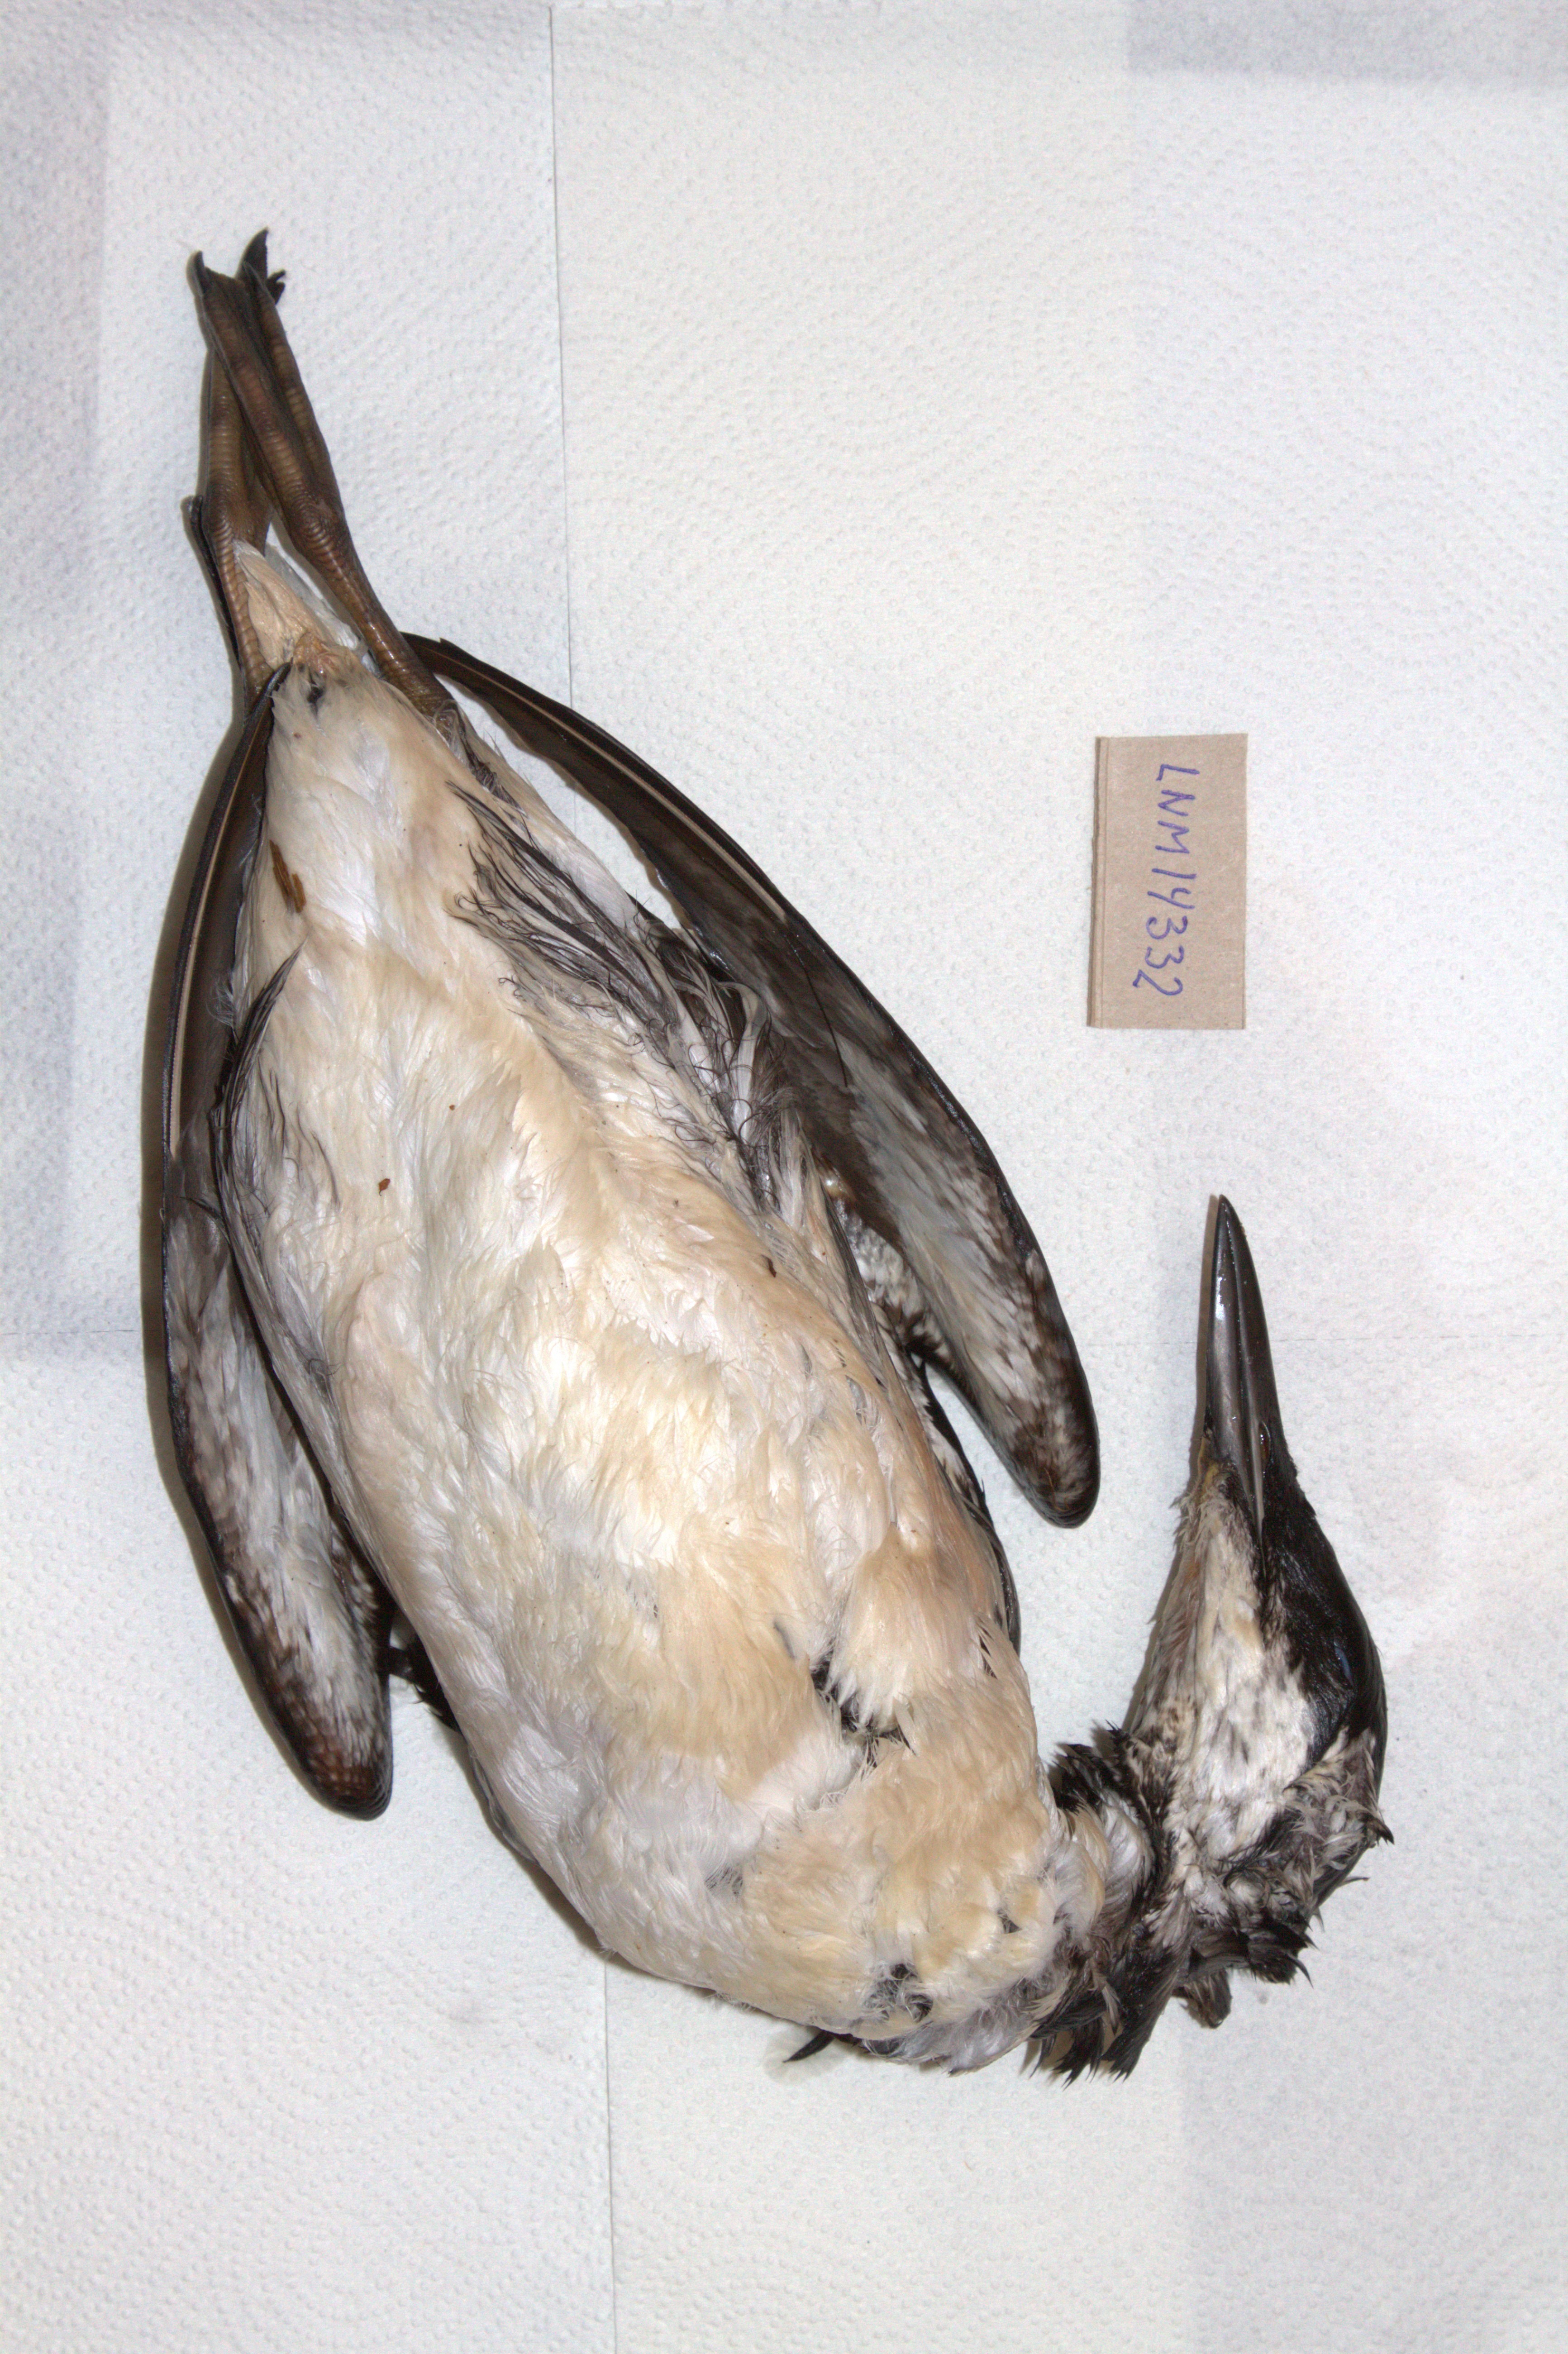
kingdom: Animalia
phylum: Chordata
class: Aves
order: Charadriiformes
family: Alcidae
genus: Uria
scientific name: Uria aalge
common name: Common murre
